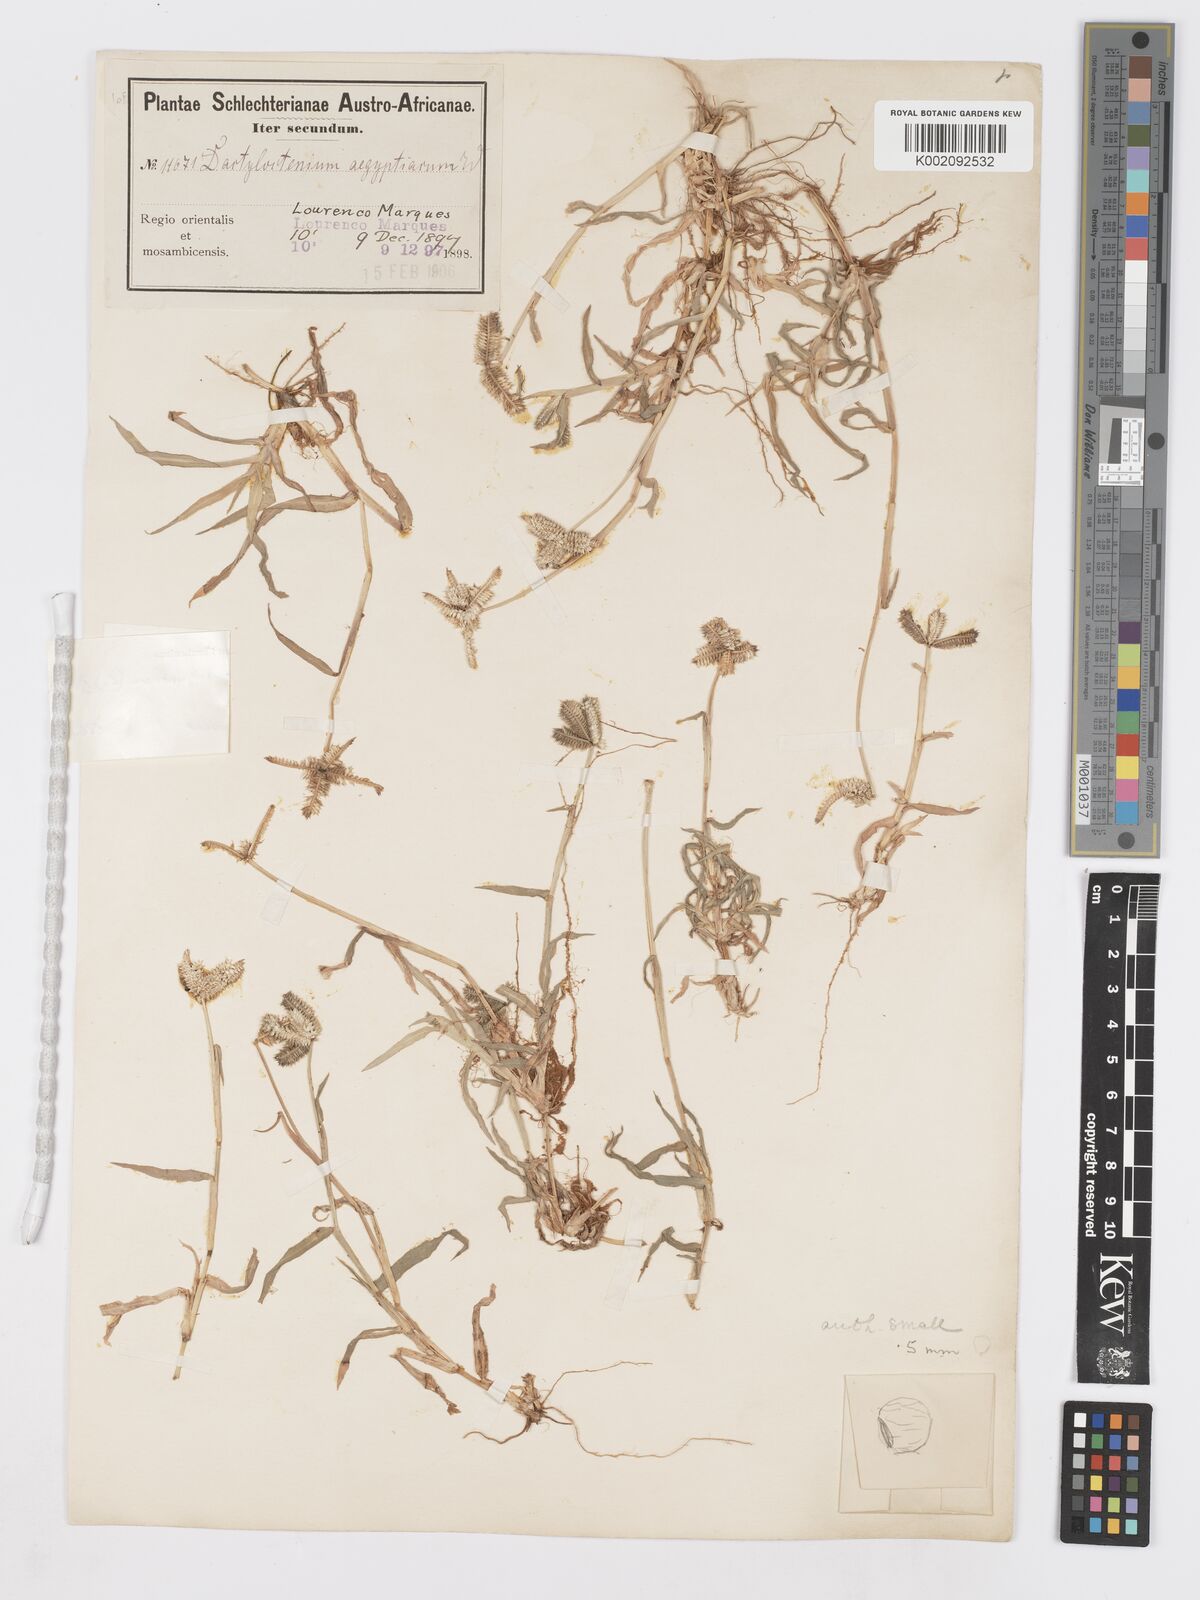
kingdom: Plantae
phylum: Tracheophyta
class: Liliopsida
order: Poales
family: Poaceae
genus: Dactyloctenium
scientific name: Dactyloctenium aegyptium
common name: Egyptian grass
